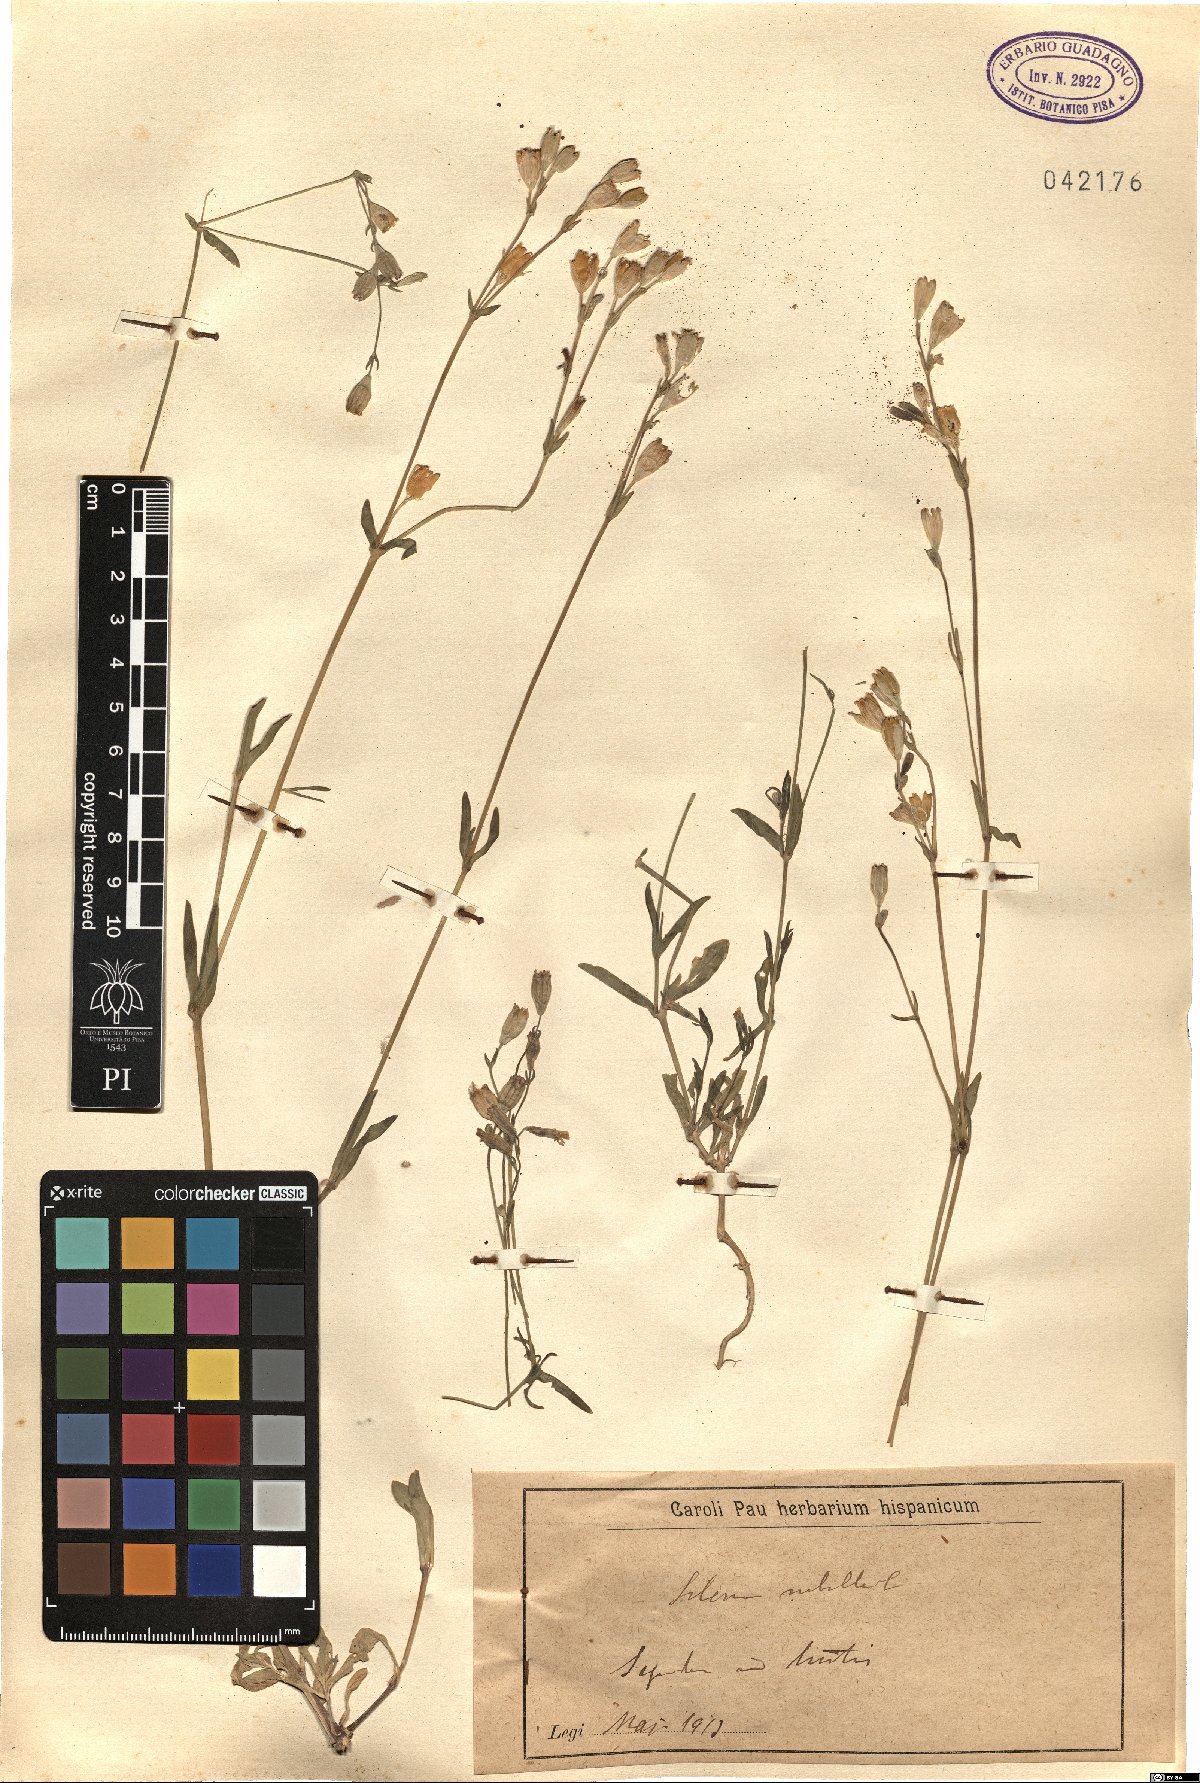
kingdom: Plantae
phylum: Tracheophyta
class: Magnoliopsida
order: Caryophyllales
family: Caryophyllaceae
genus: Silene
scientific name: Silene rubella
